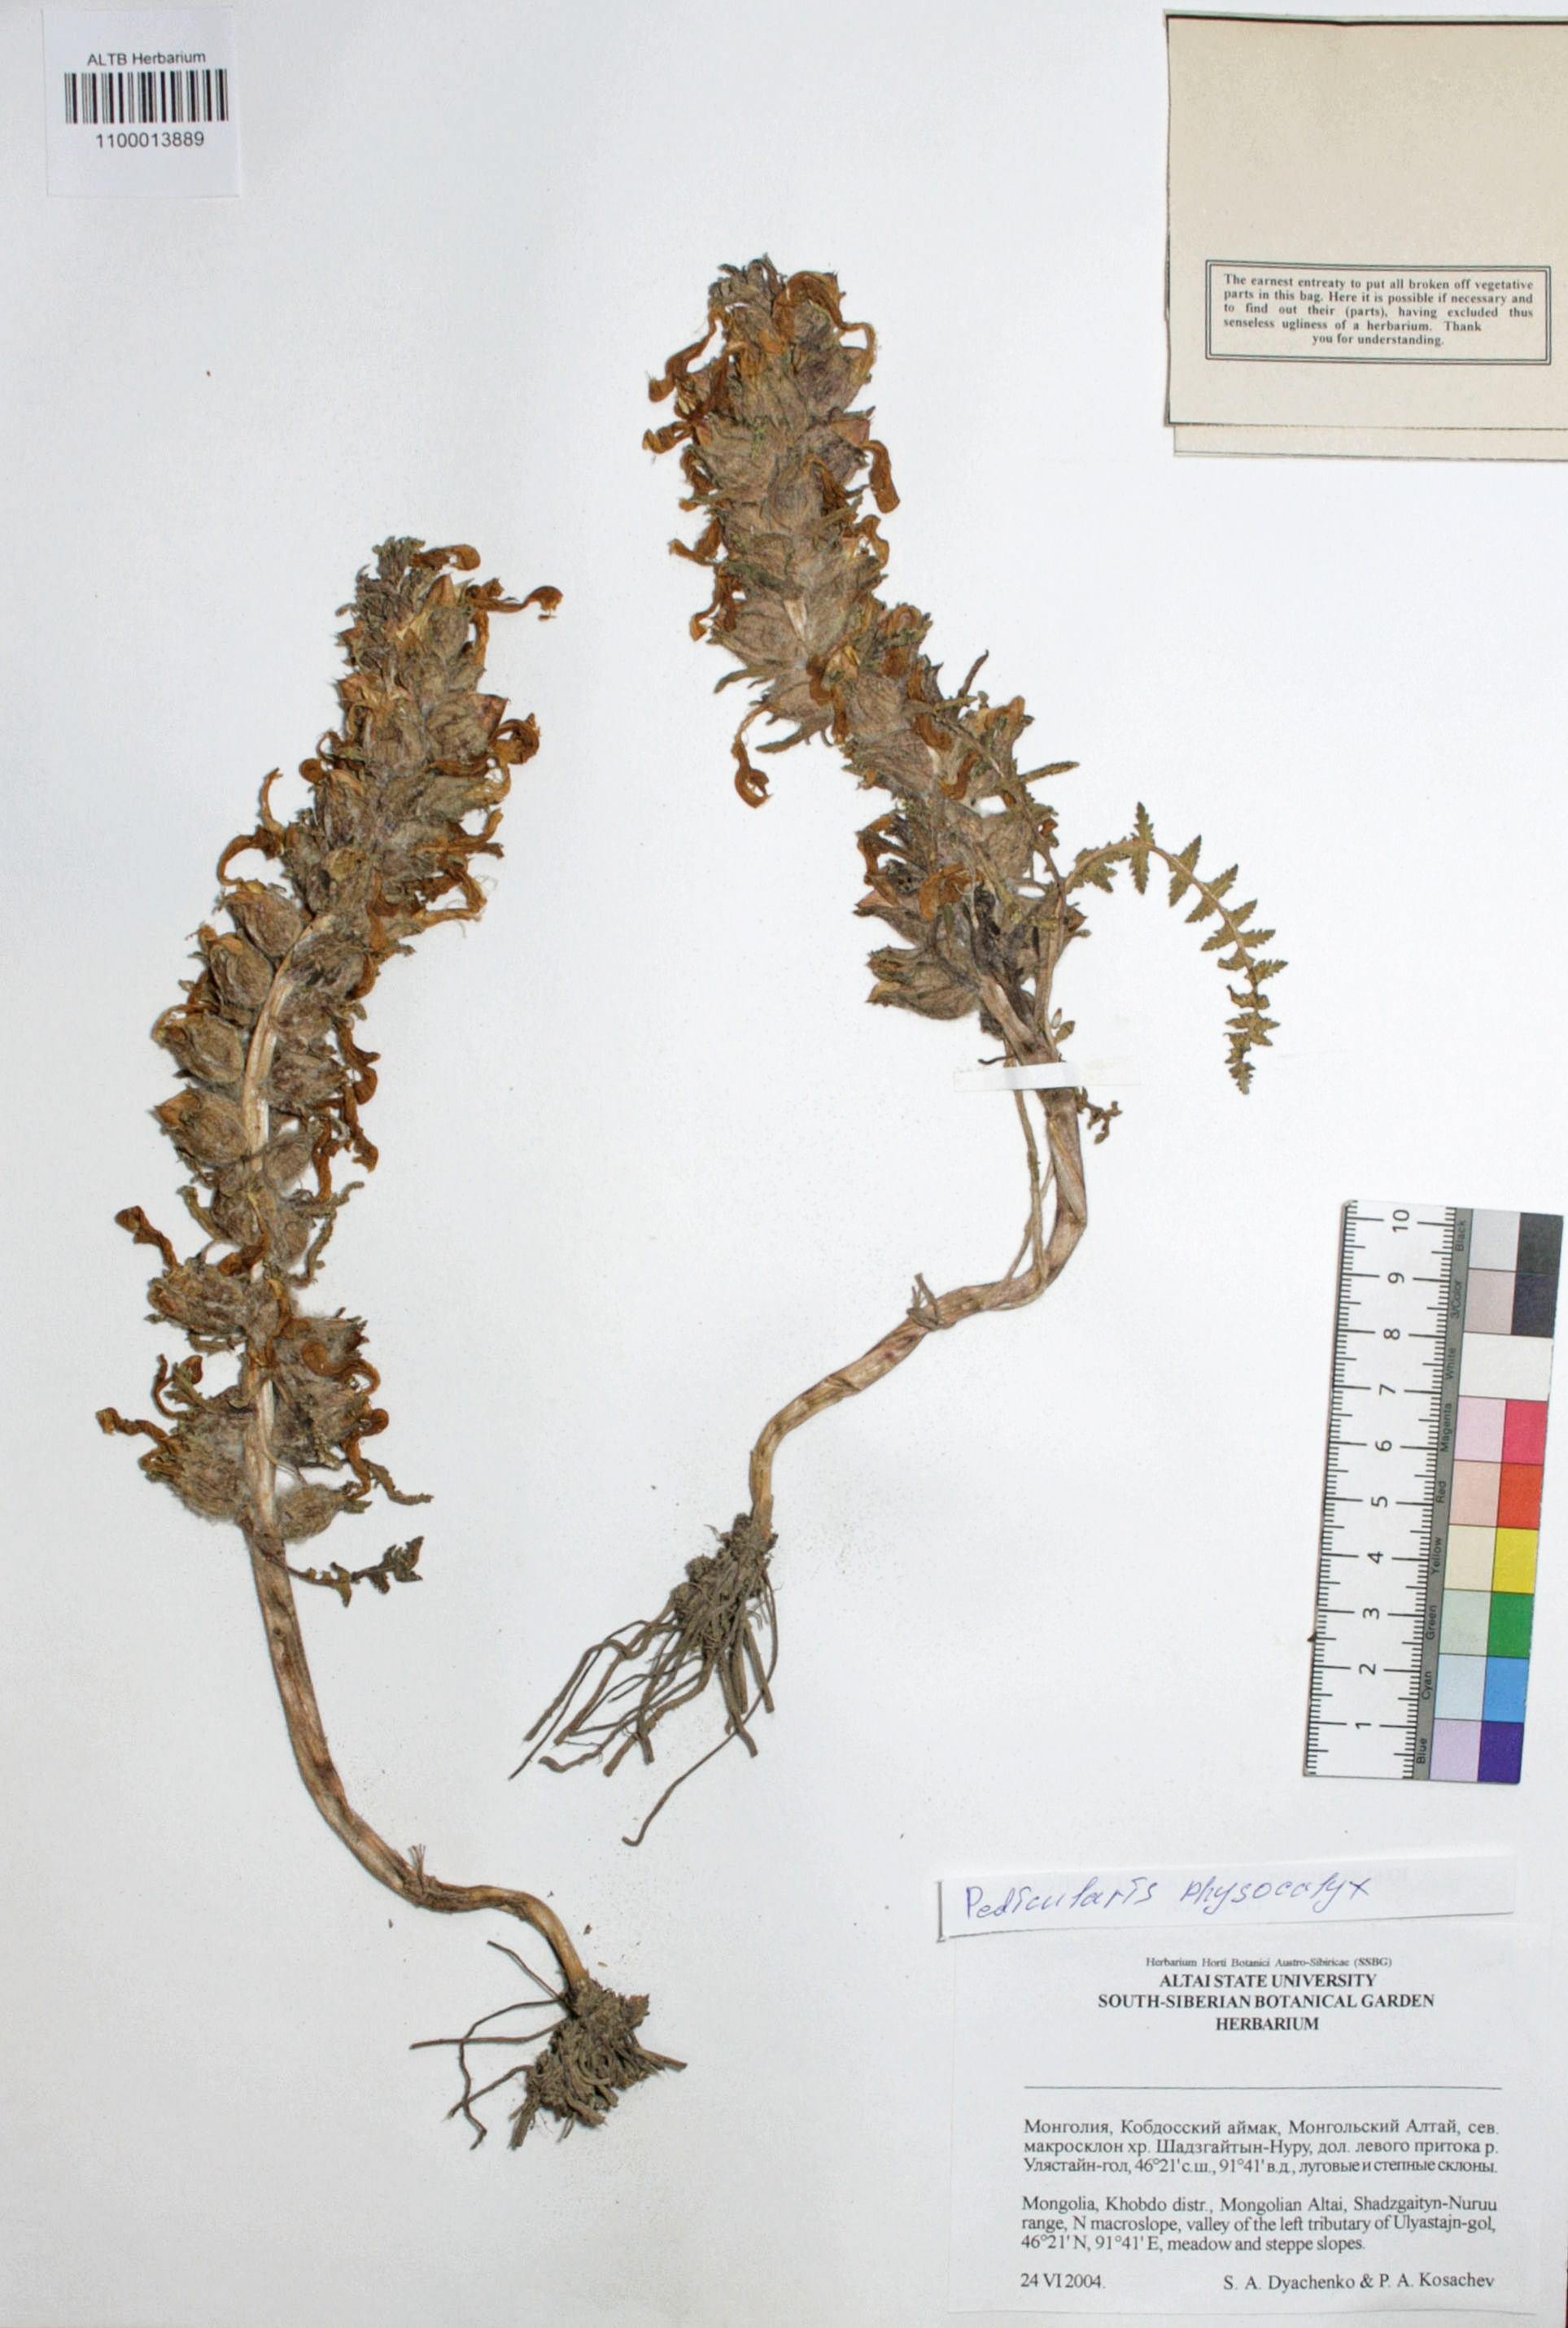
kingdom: Plantae
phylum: Tracheophyta
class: Magnoliopsida
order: Lamiales
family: Orobanchaceae
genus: Pedicularis
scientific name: Pedicularis physocalyx
